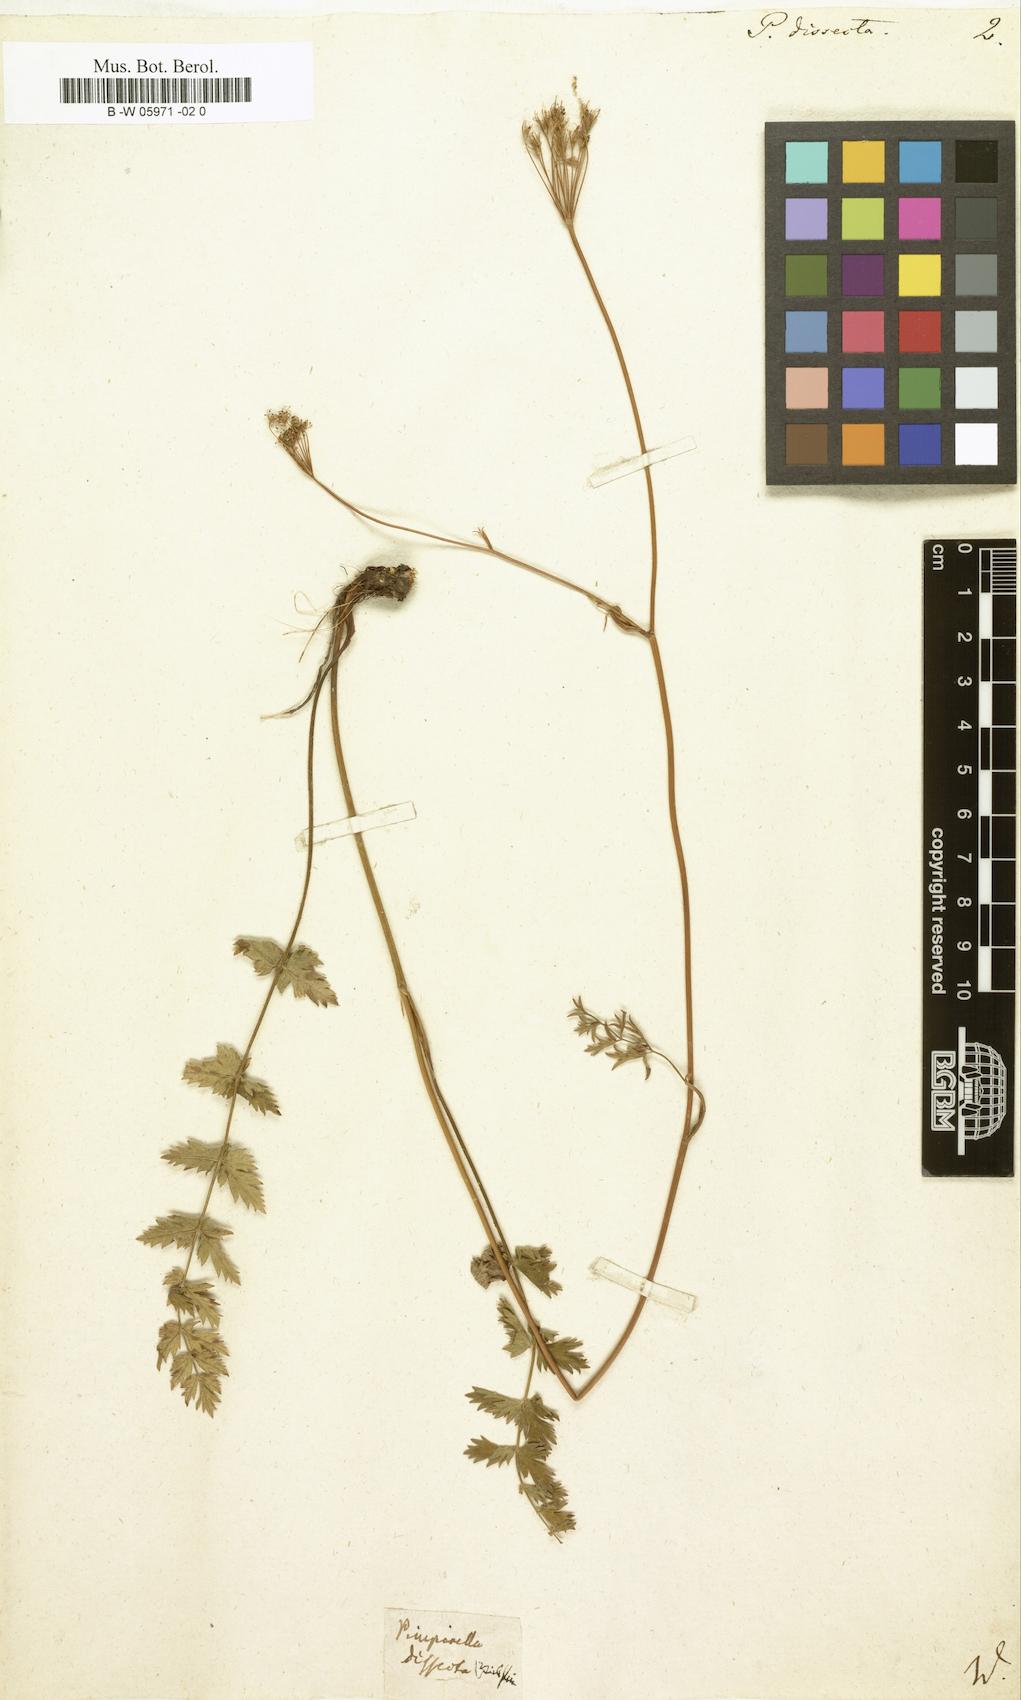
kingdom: Plantae
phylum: Tracheophyta
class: Magnoliopsida
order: Apiales
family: Apiaceae
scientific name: Apiaceae
